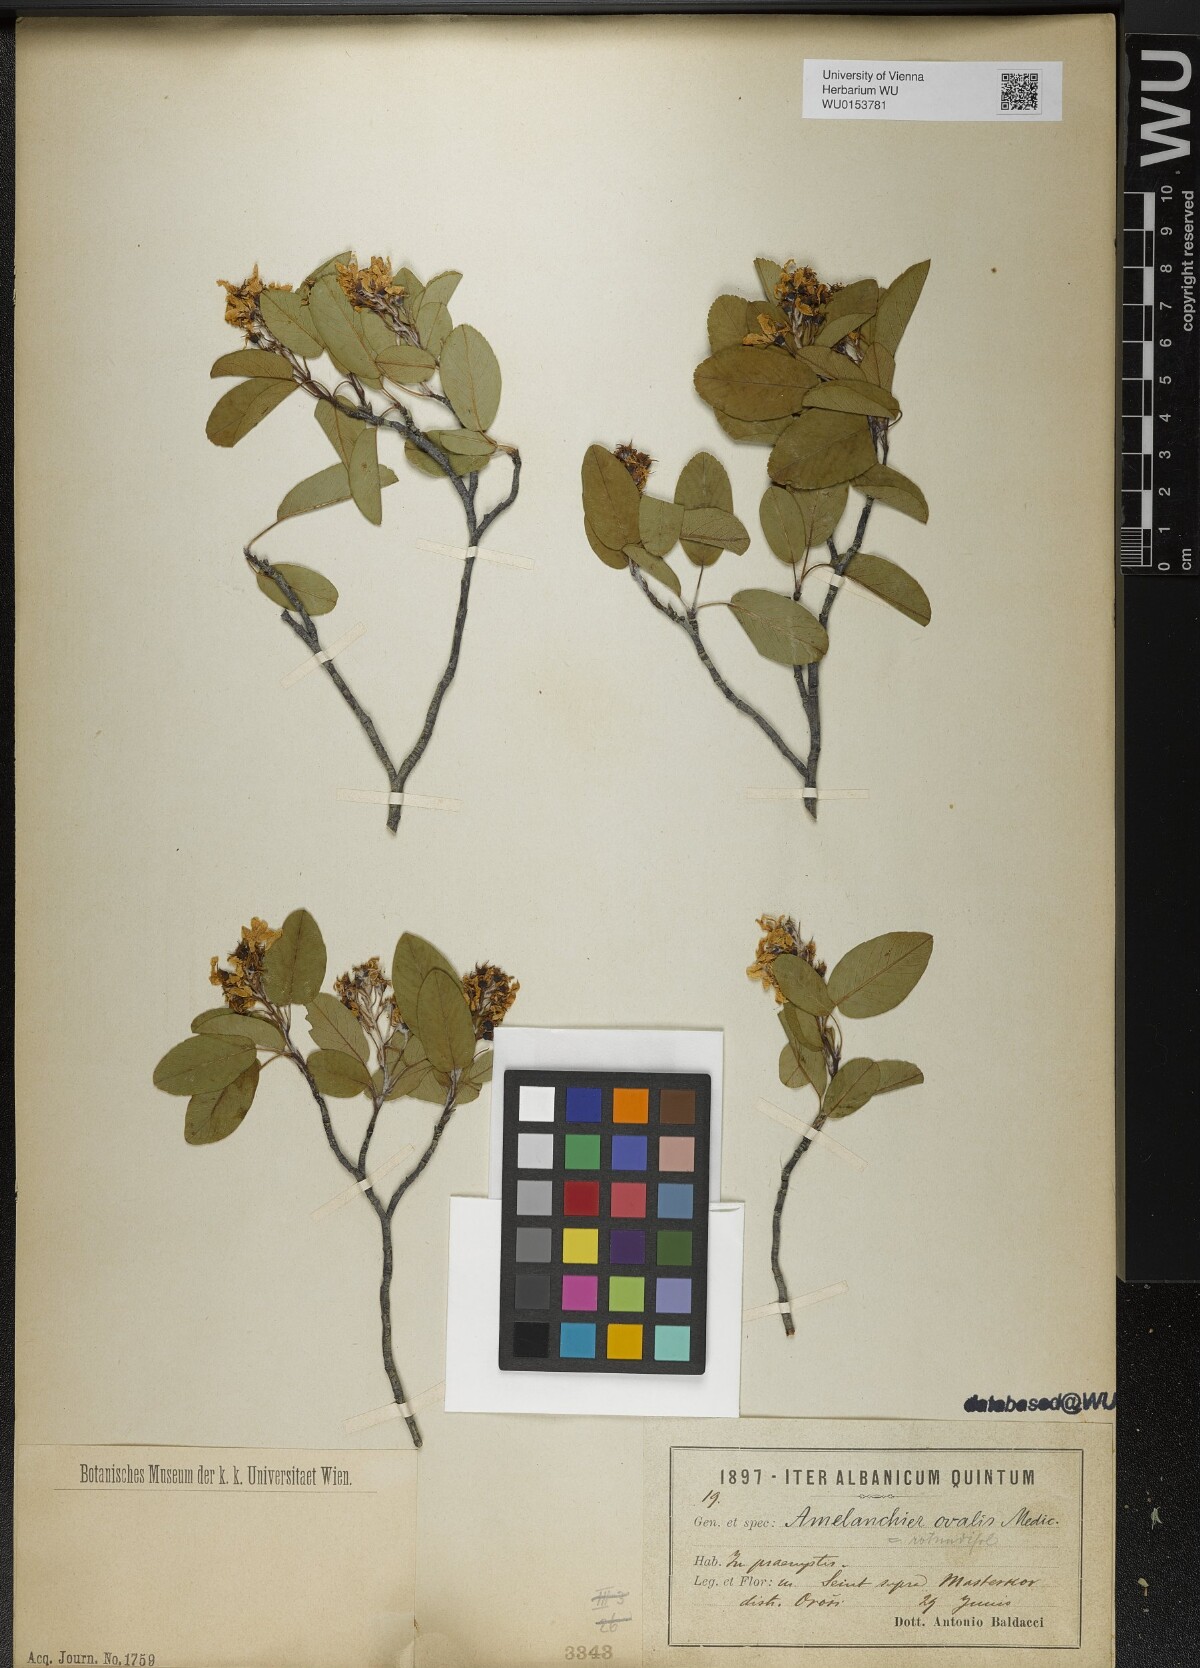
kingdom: Plantae
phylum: Tracheophyta
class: Magnoliopsida
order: Rosales
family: Rosaceae
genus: Amelanchier
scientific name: Amelanchier ovalis
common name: Serviceberry
